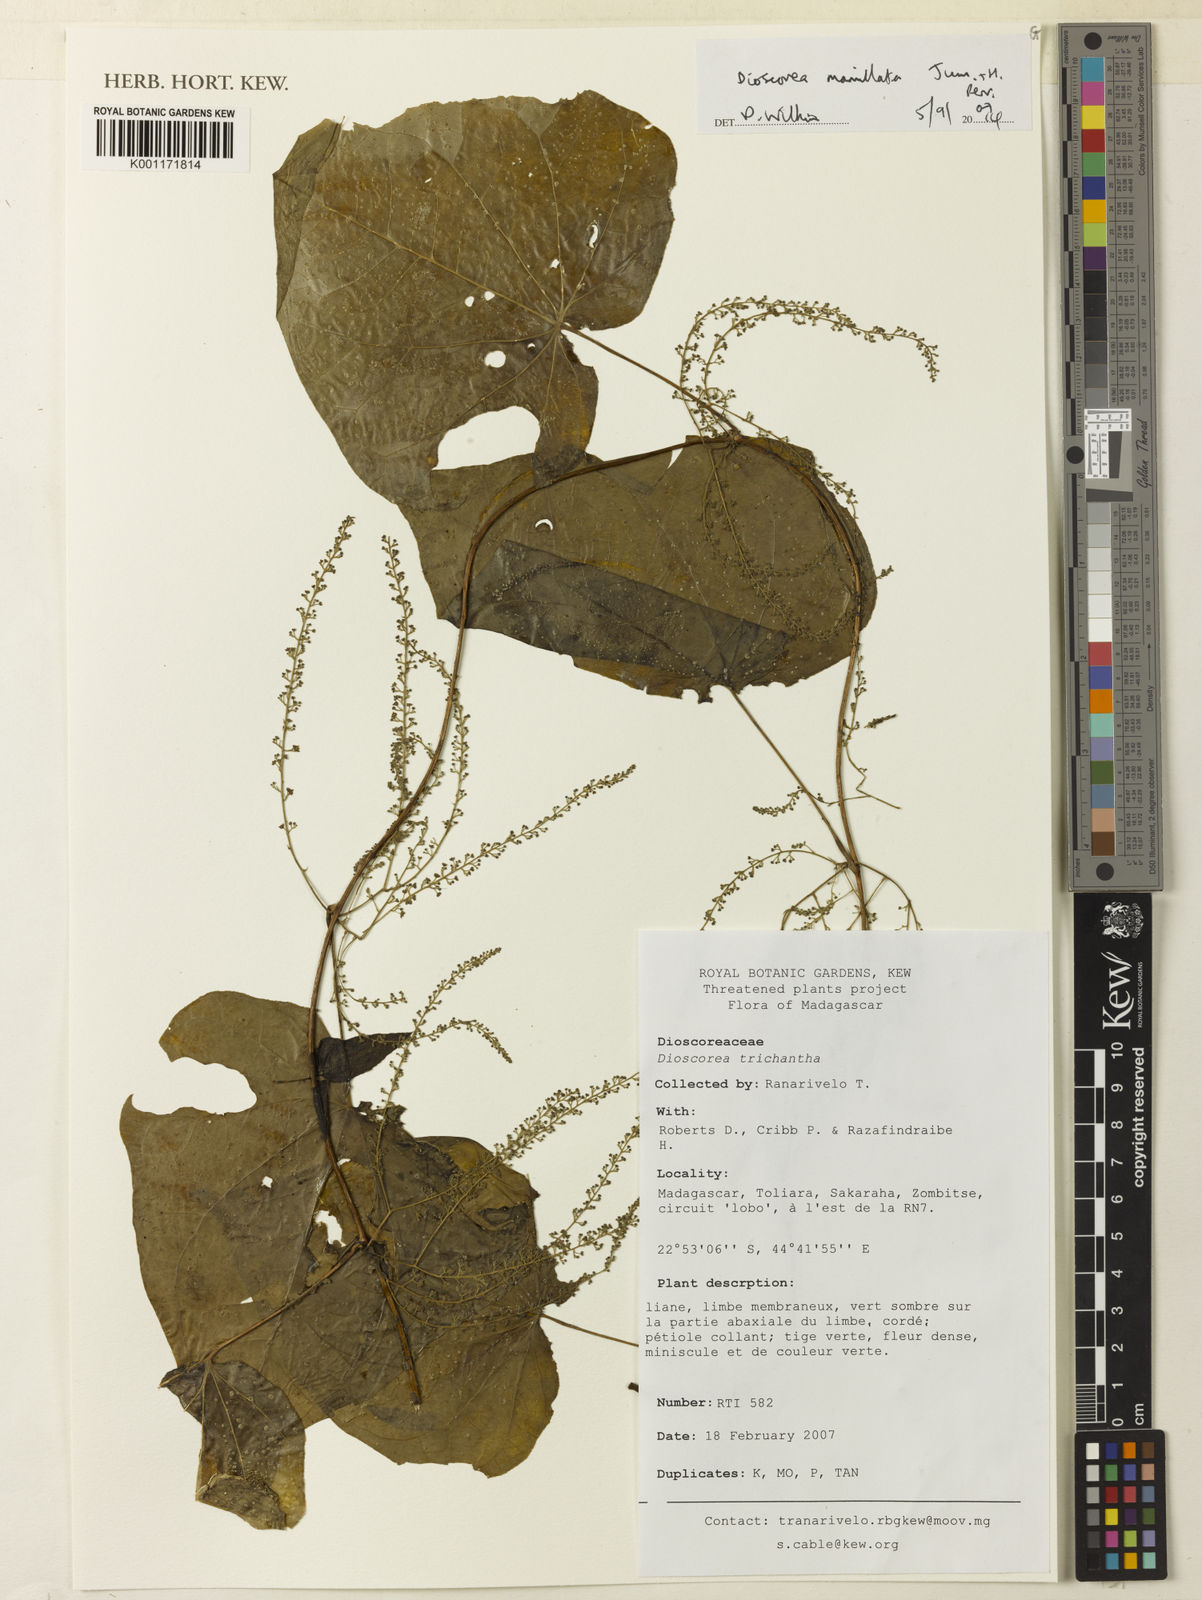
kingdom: Plantae
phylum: Tracheophyta
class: Liliopsida
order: Dioscoreales
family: Dioscoreaceae
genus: Dioscorea
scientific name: Dioscorea trichantha
